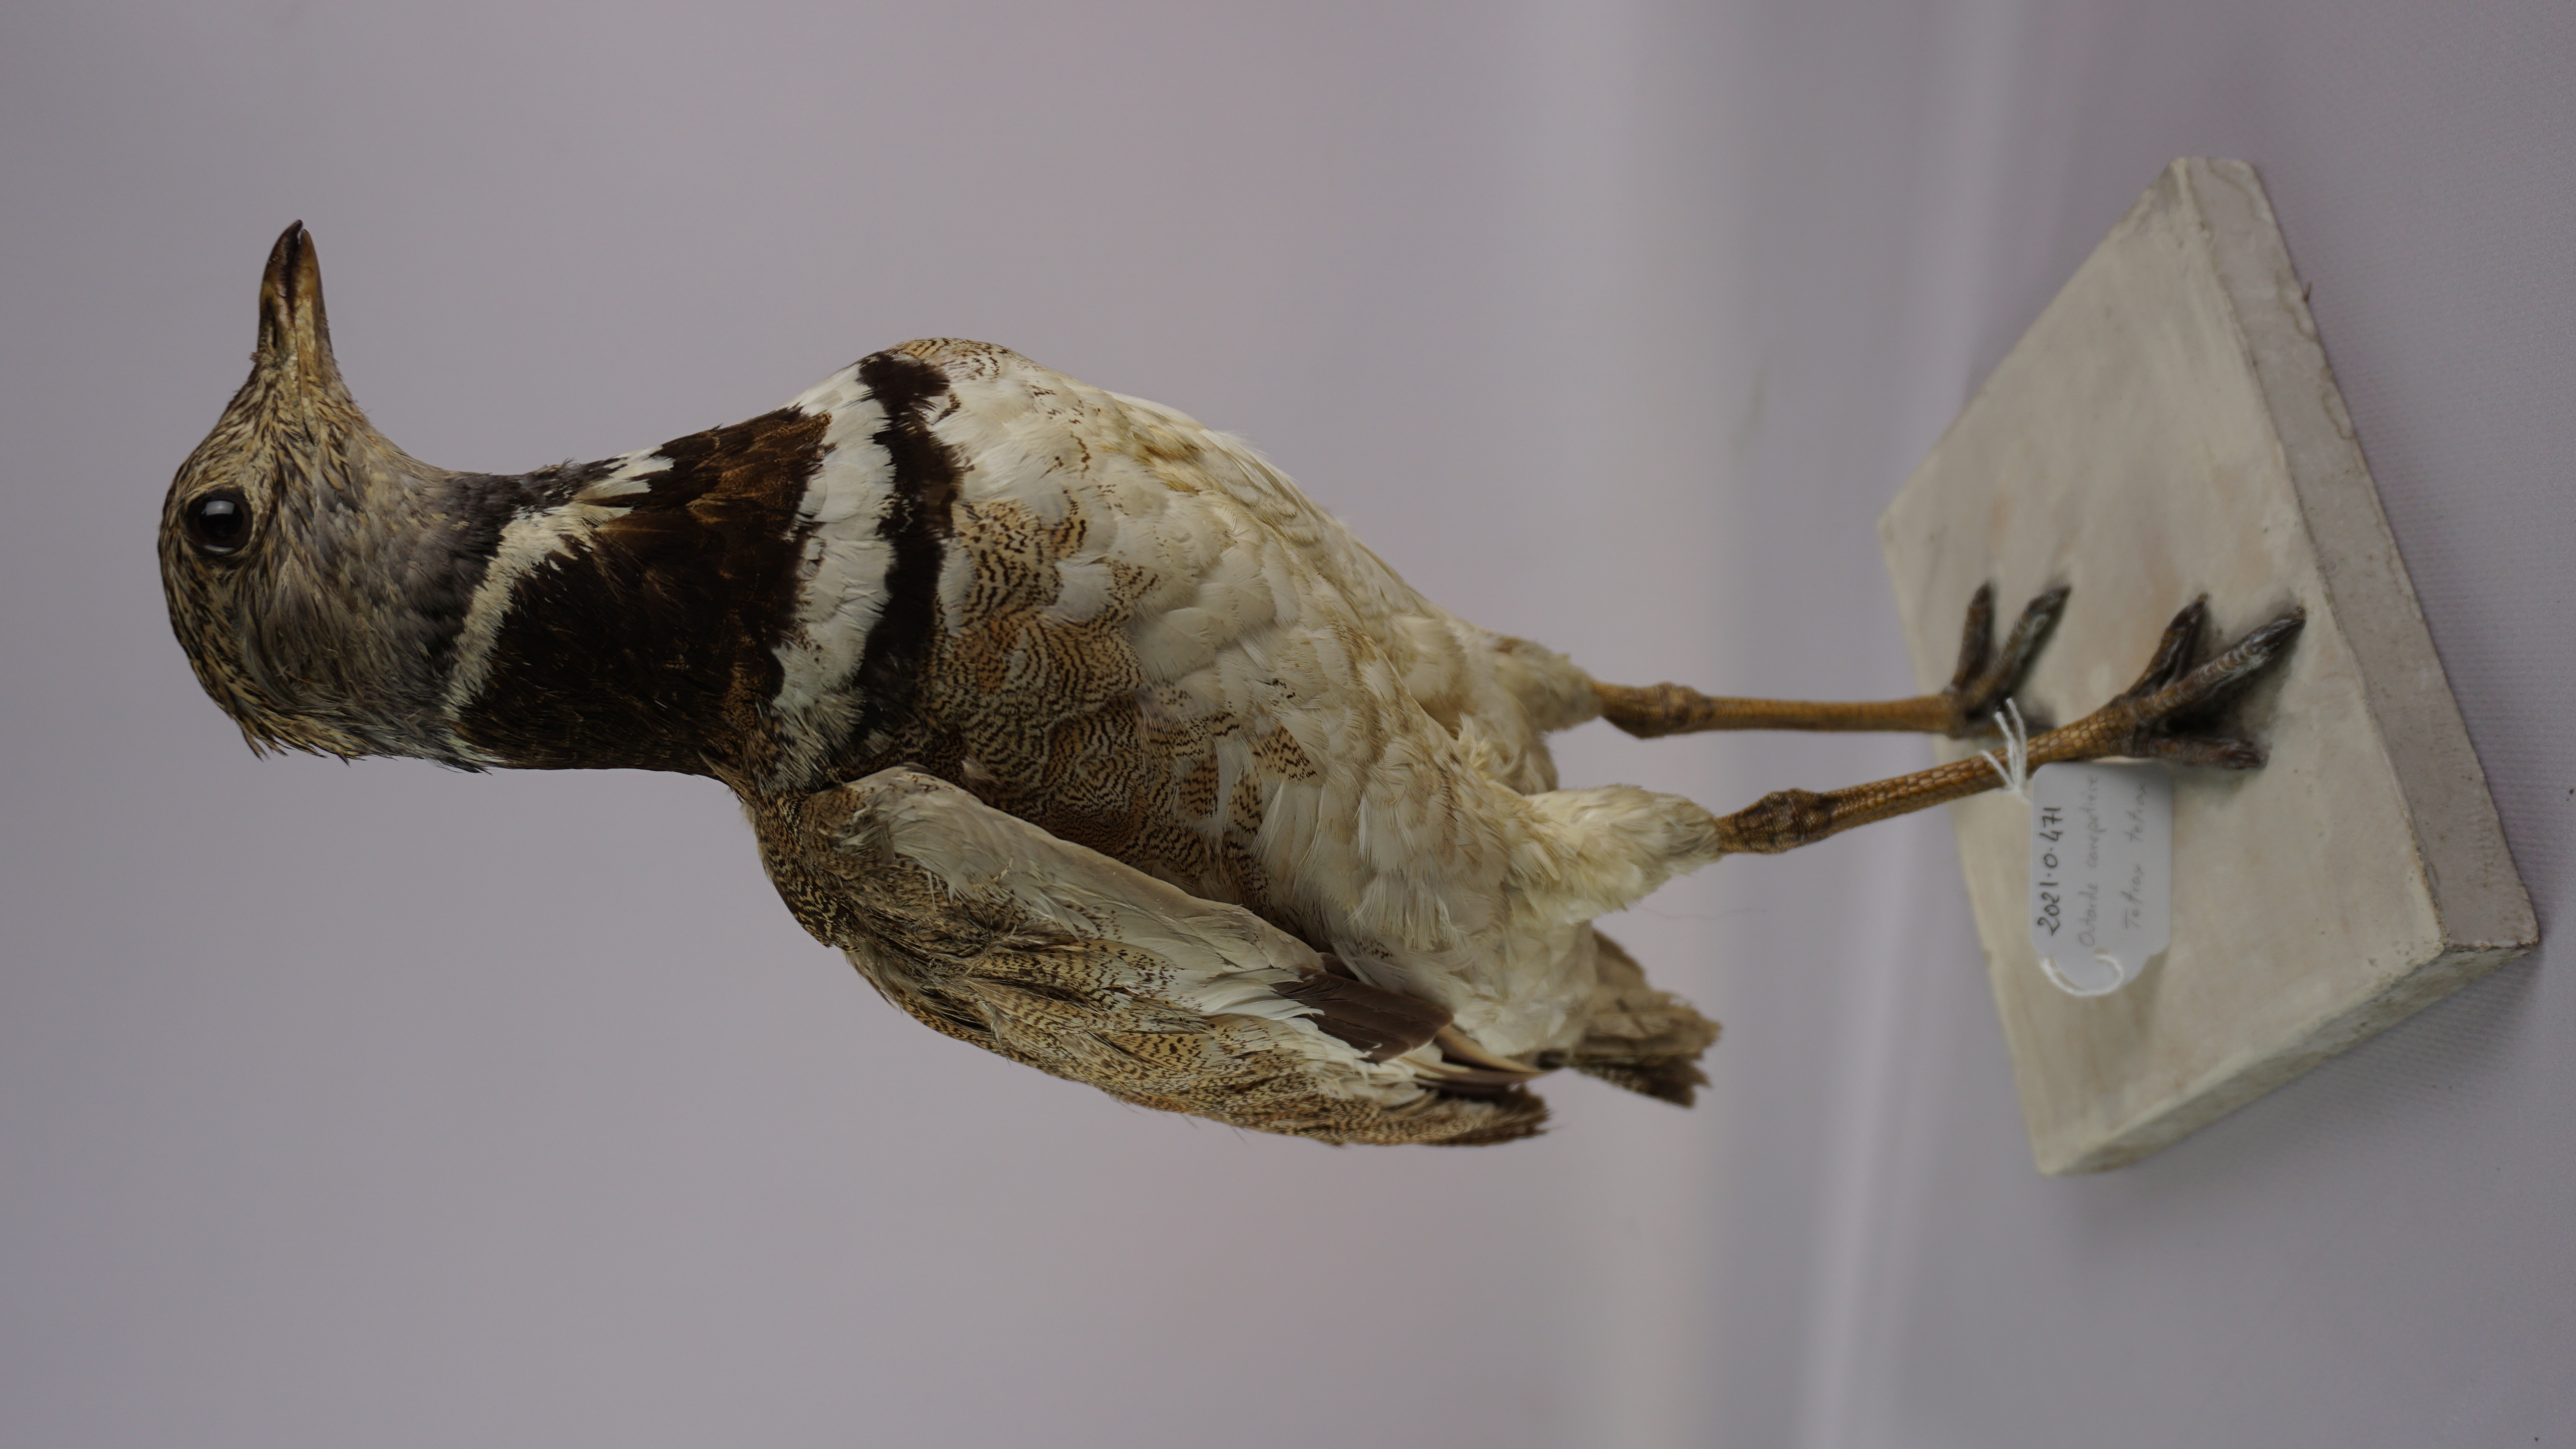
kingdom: Animalia
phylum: Chordata
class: Aves
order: Otidiformes
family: Otididae
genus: Tetrax
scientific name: Tetrax tetrax
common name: Little bustard
